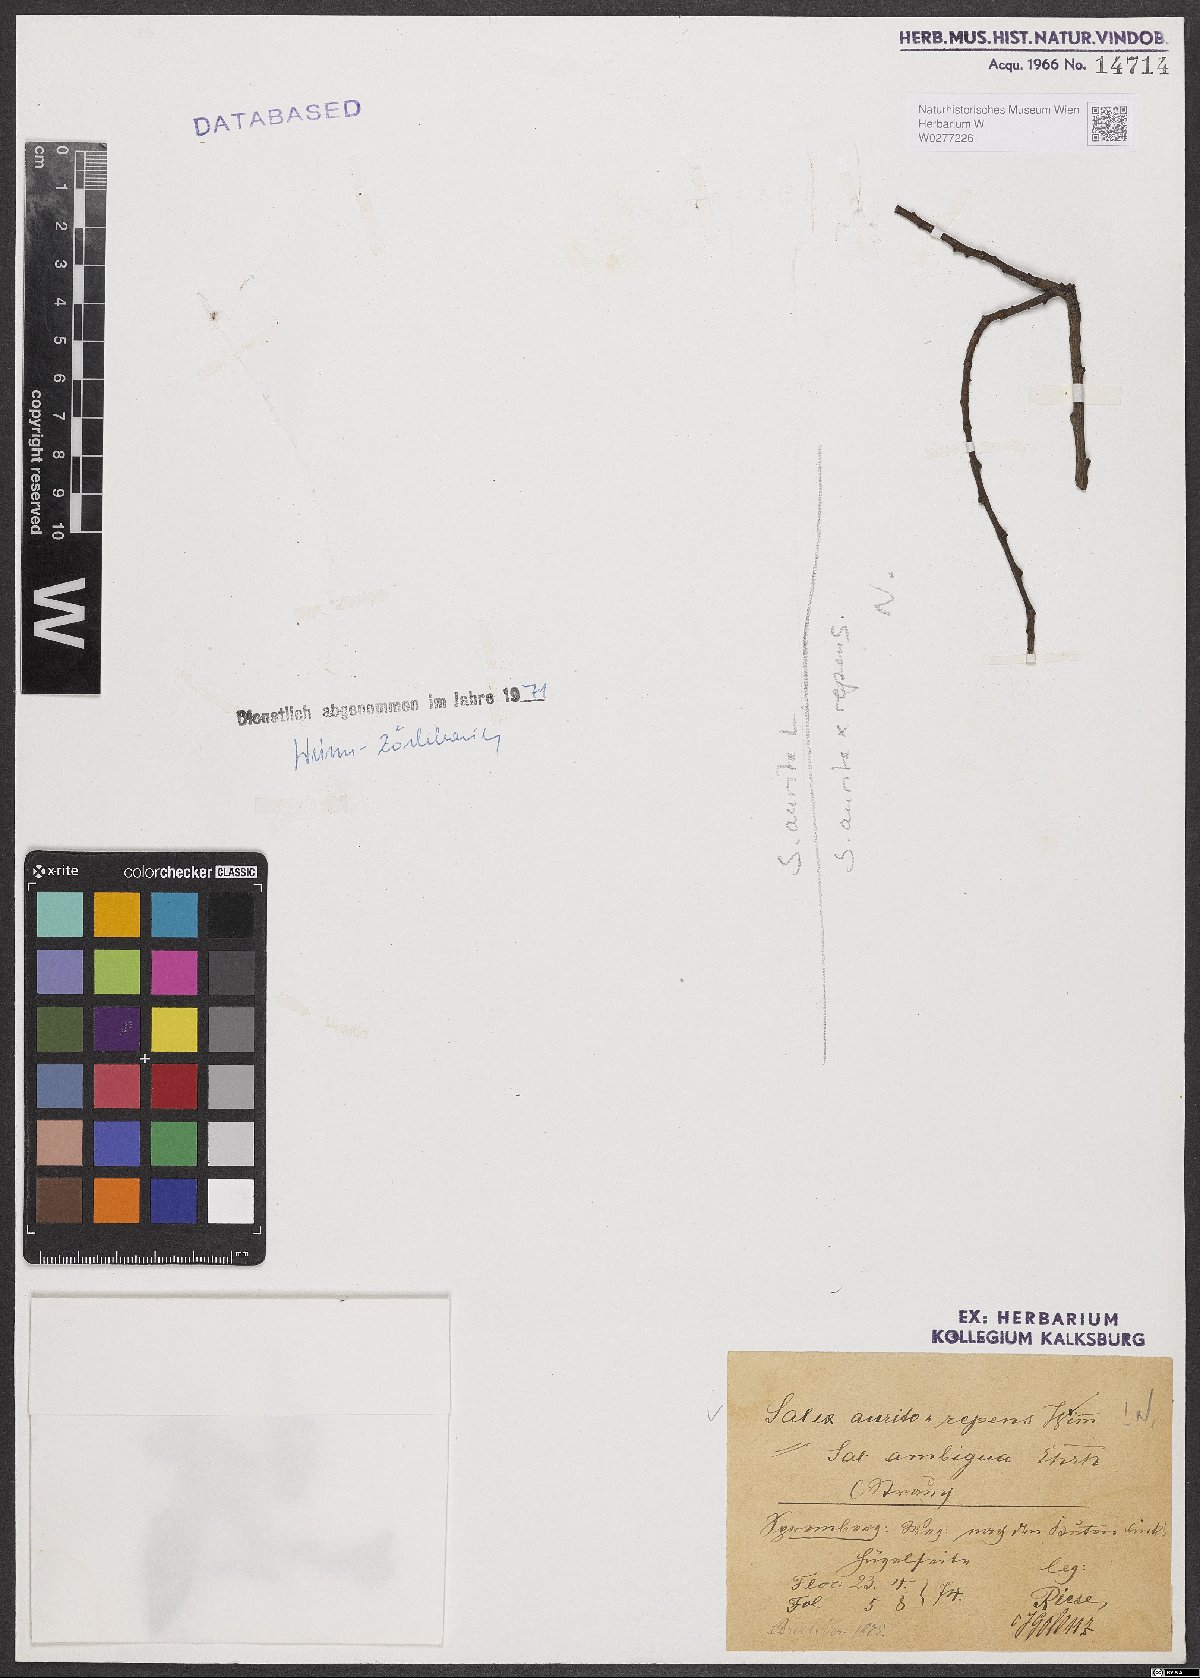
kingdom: Plantae
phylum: Tracheophyta
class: Magnoliopsida
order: Malpighiales
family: Salicaceae
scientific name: Salicaceae
